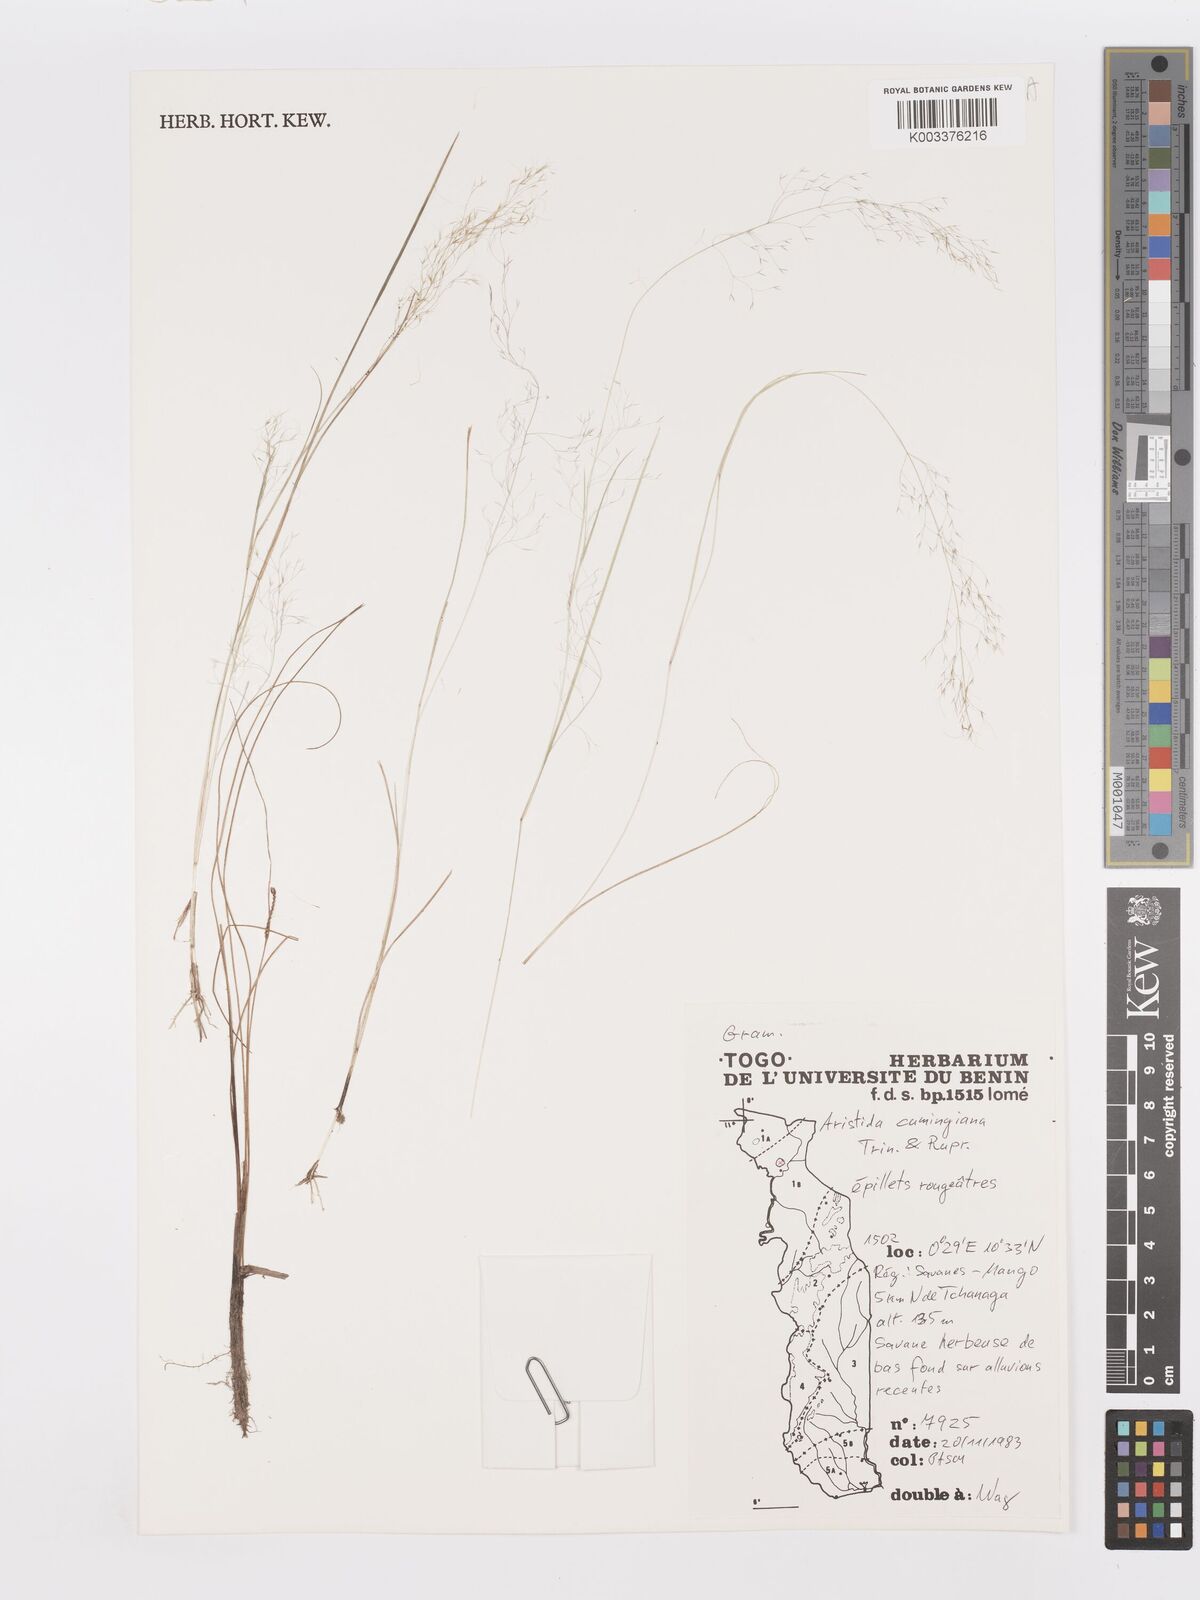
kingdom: Plantae
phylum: Tracheophyta
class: Liliopsida
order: Poales
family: Poaceae
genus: Aristida
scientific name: Aristida cumingiana
